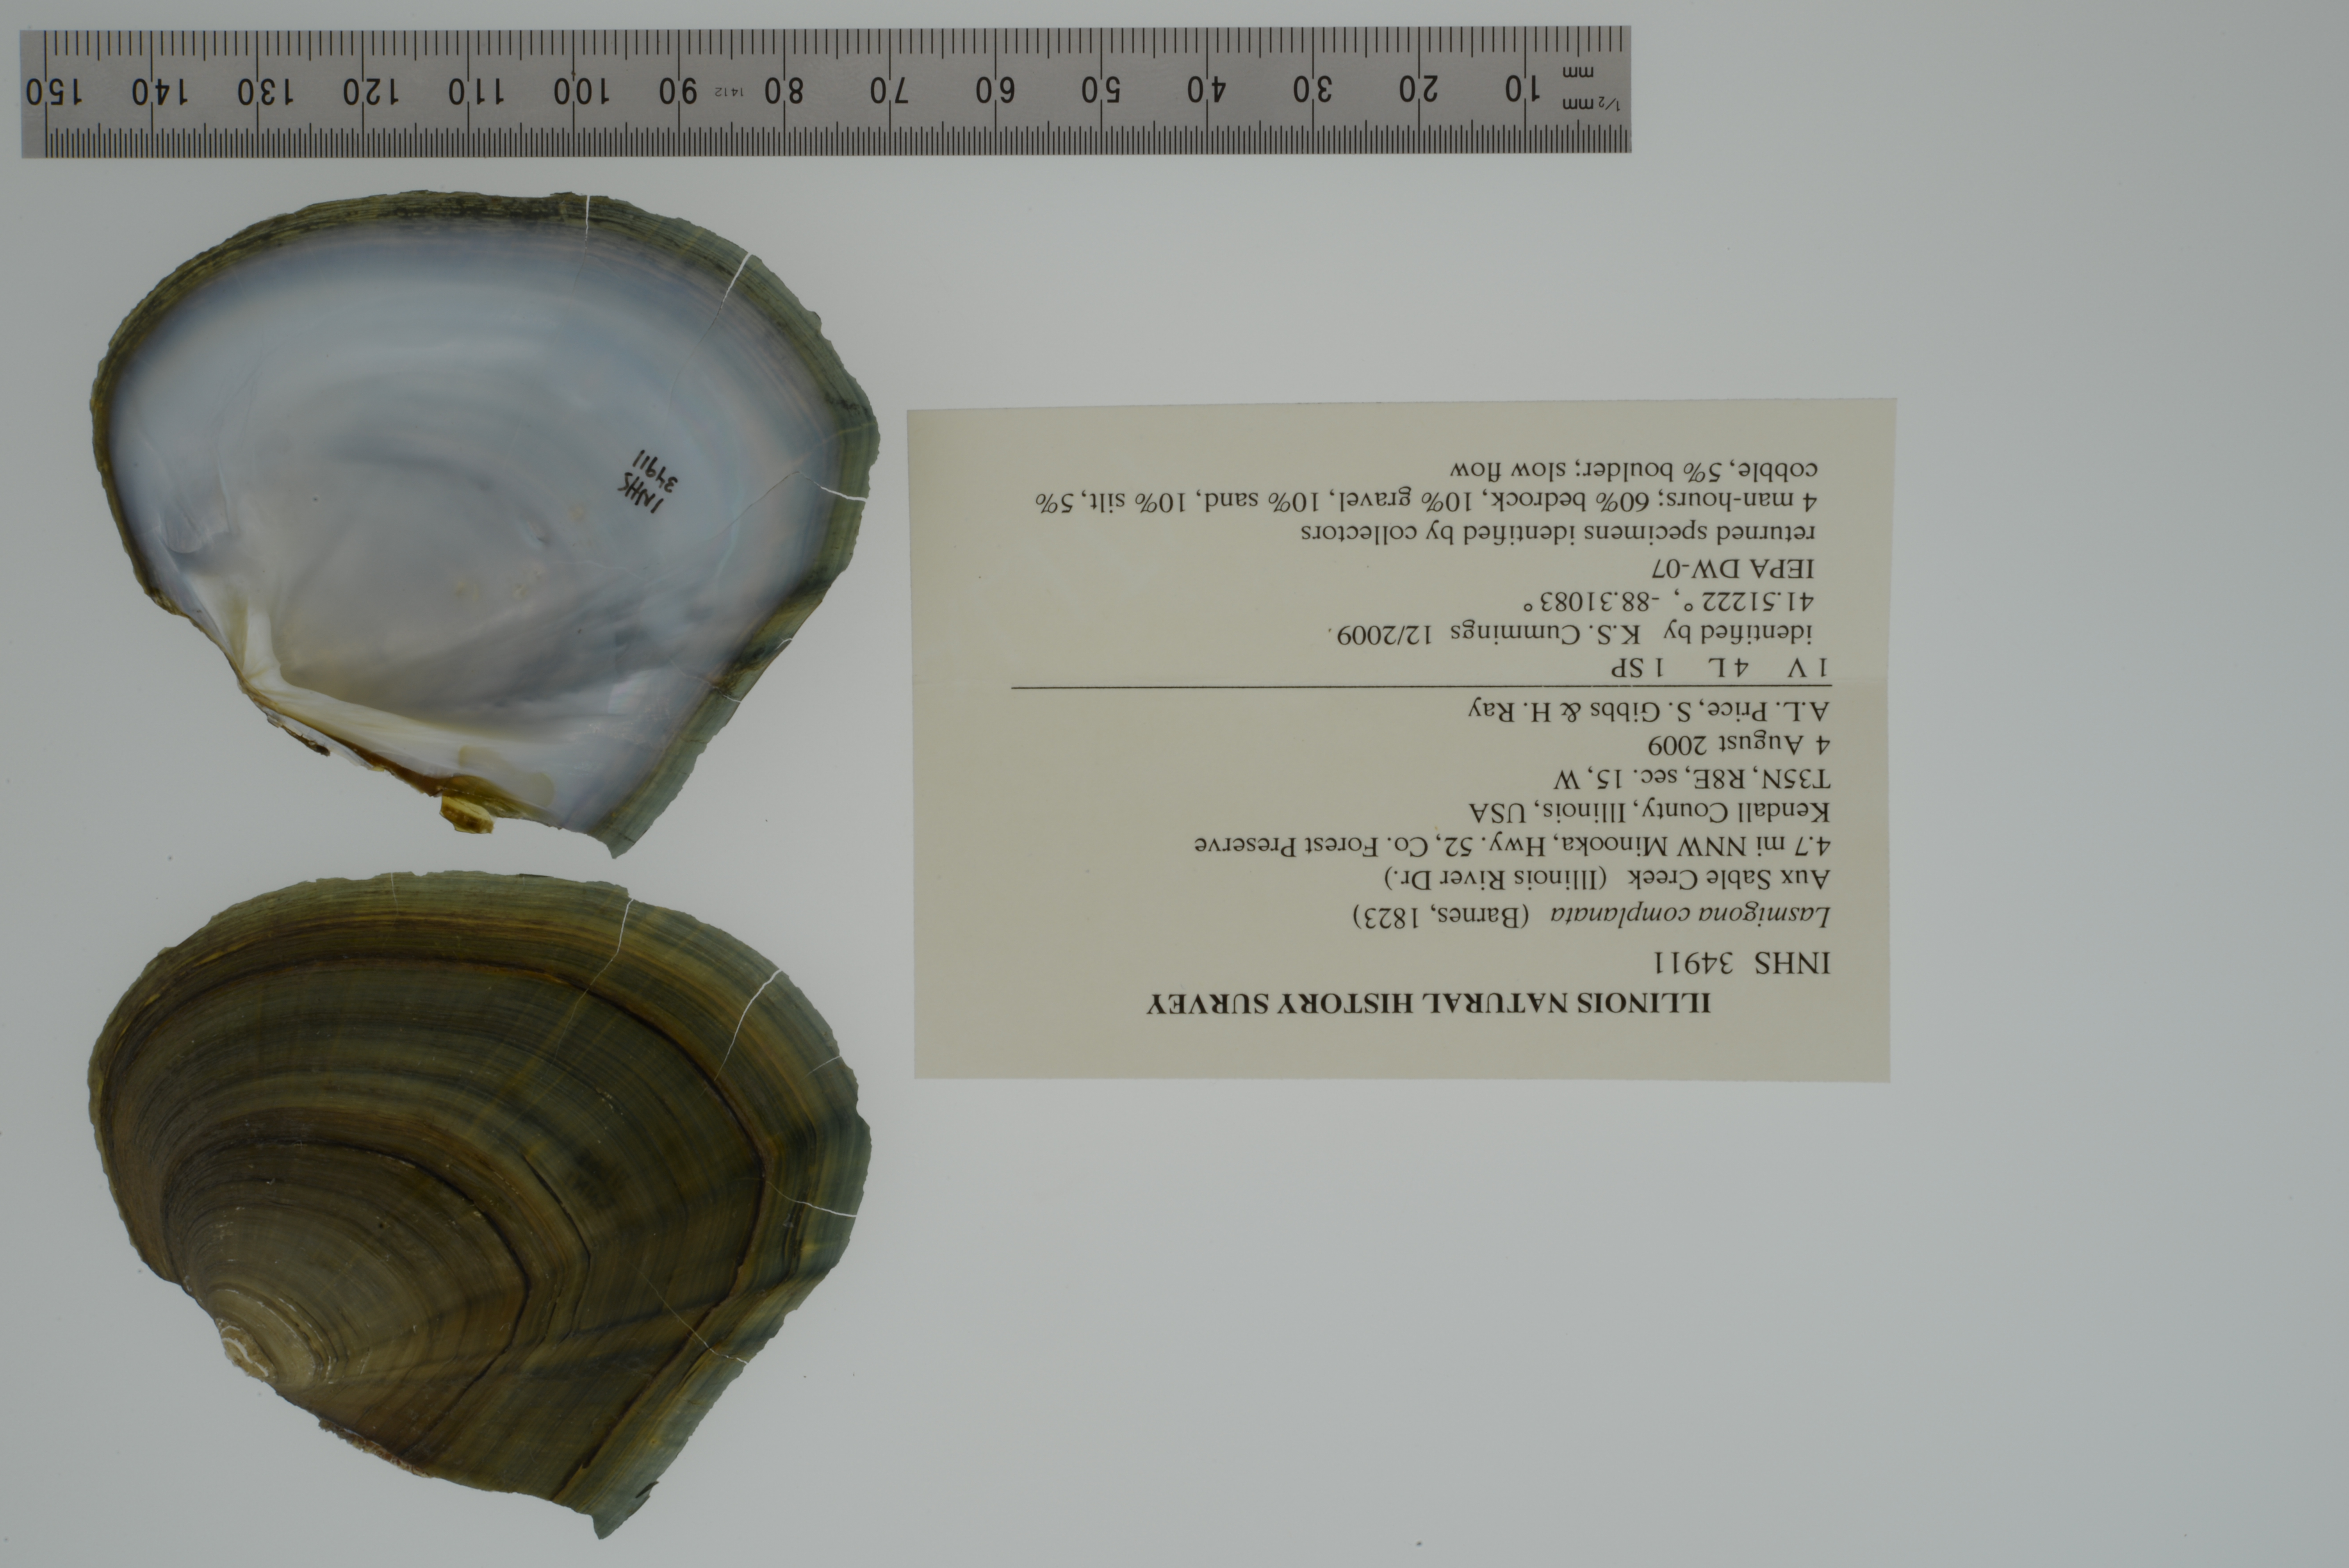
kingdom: Animalia
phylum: Mollusca
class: Bivalvia
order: Unionida
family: Unionidae
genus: Lasmigona
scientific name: Lasmigona complanata
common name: White heelsplitter
